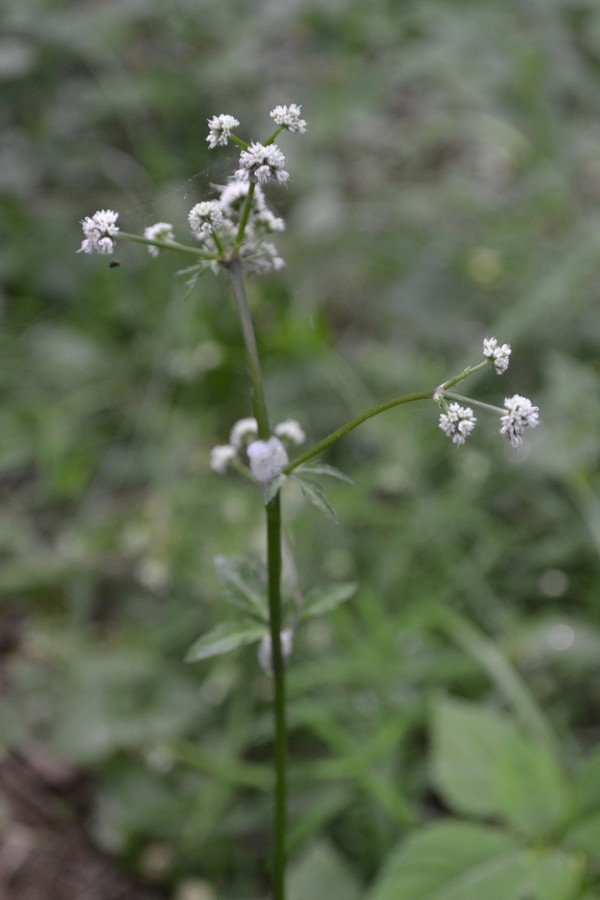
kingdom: Plantae
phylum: Tracheophyta
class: Magnoliopsida
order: Apiales
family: Apiaceae
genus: Sanicula
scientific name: Sanicula europaea
